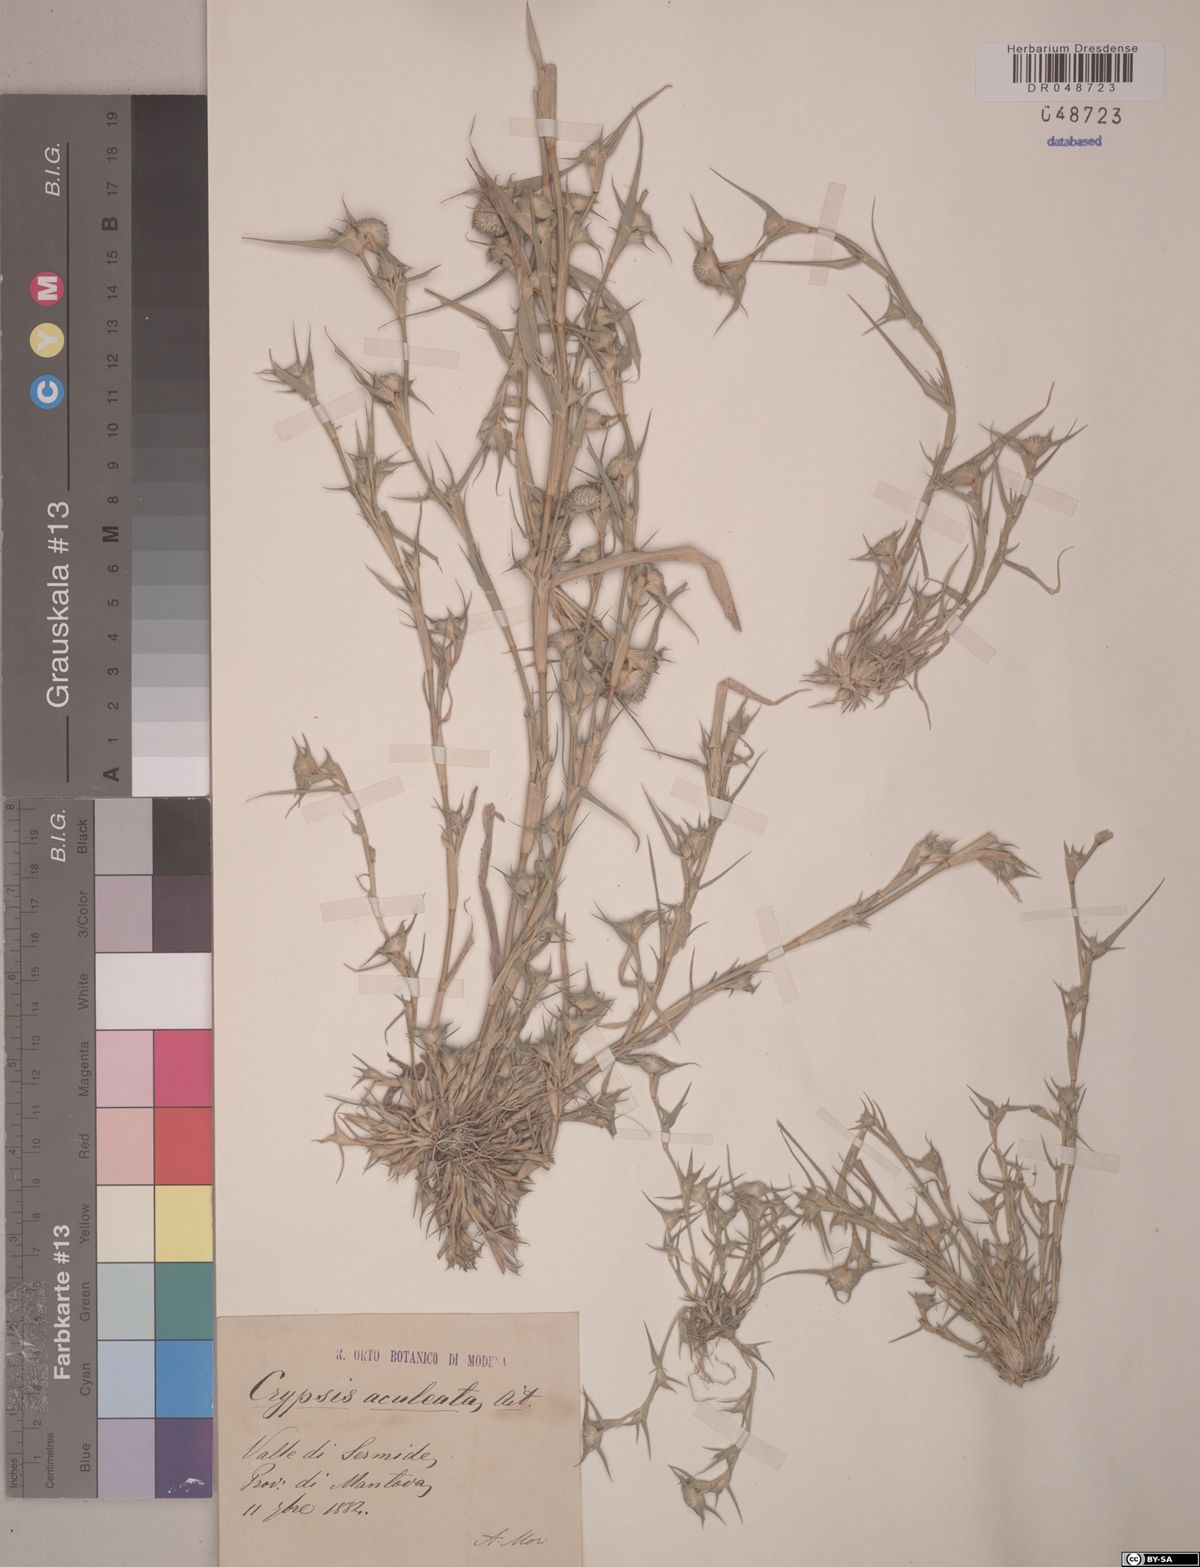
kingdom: Plantae
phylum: Tracheophyta
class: Liliopsida
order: Poales
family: Poaceae
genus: Sporobolus
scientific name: Sporobolus aculeatus
